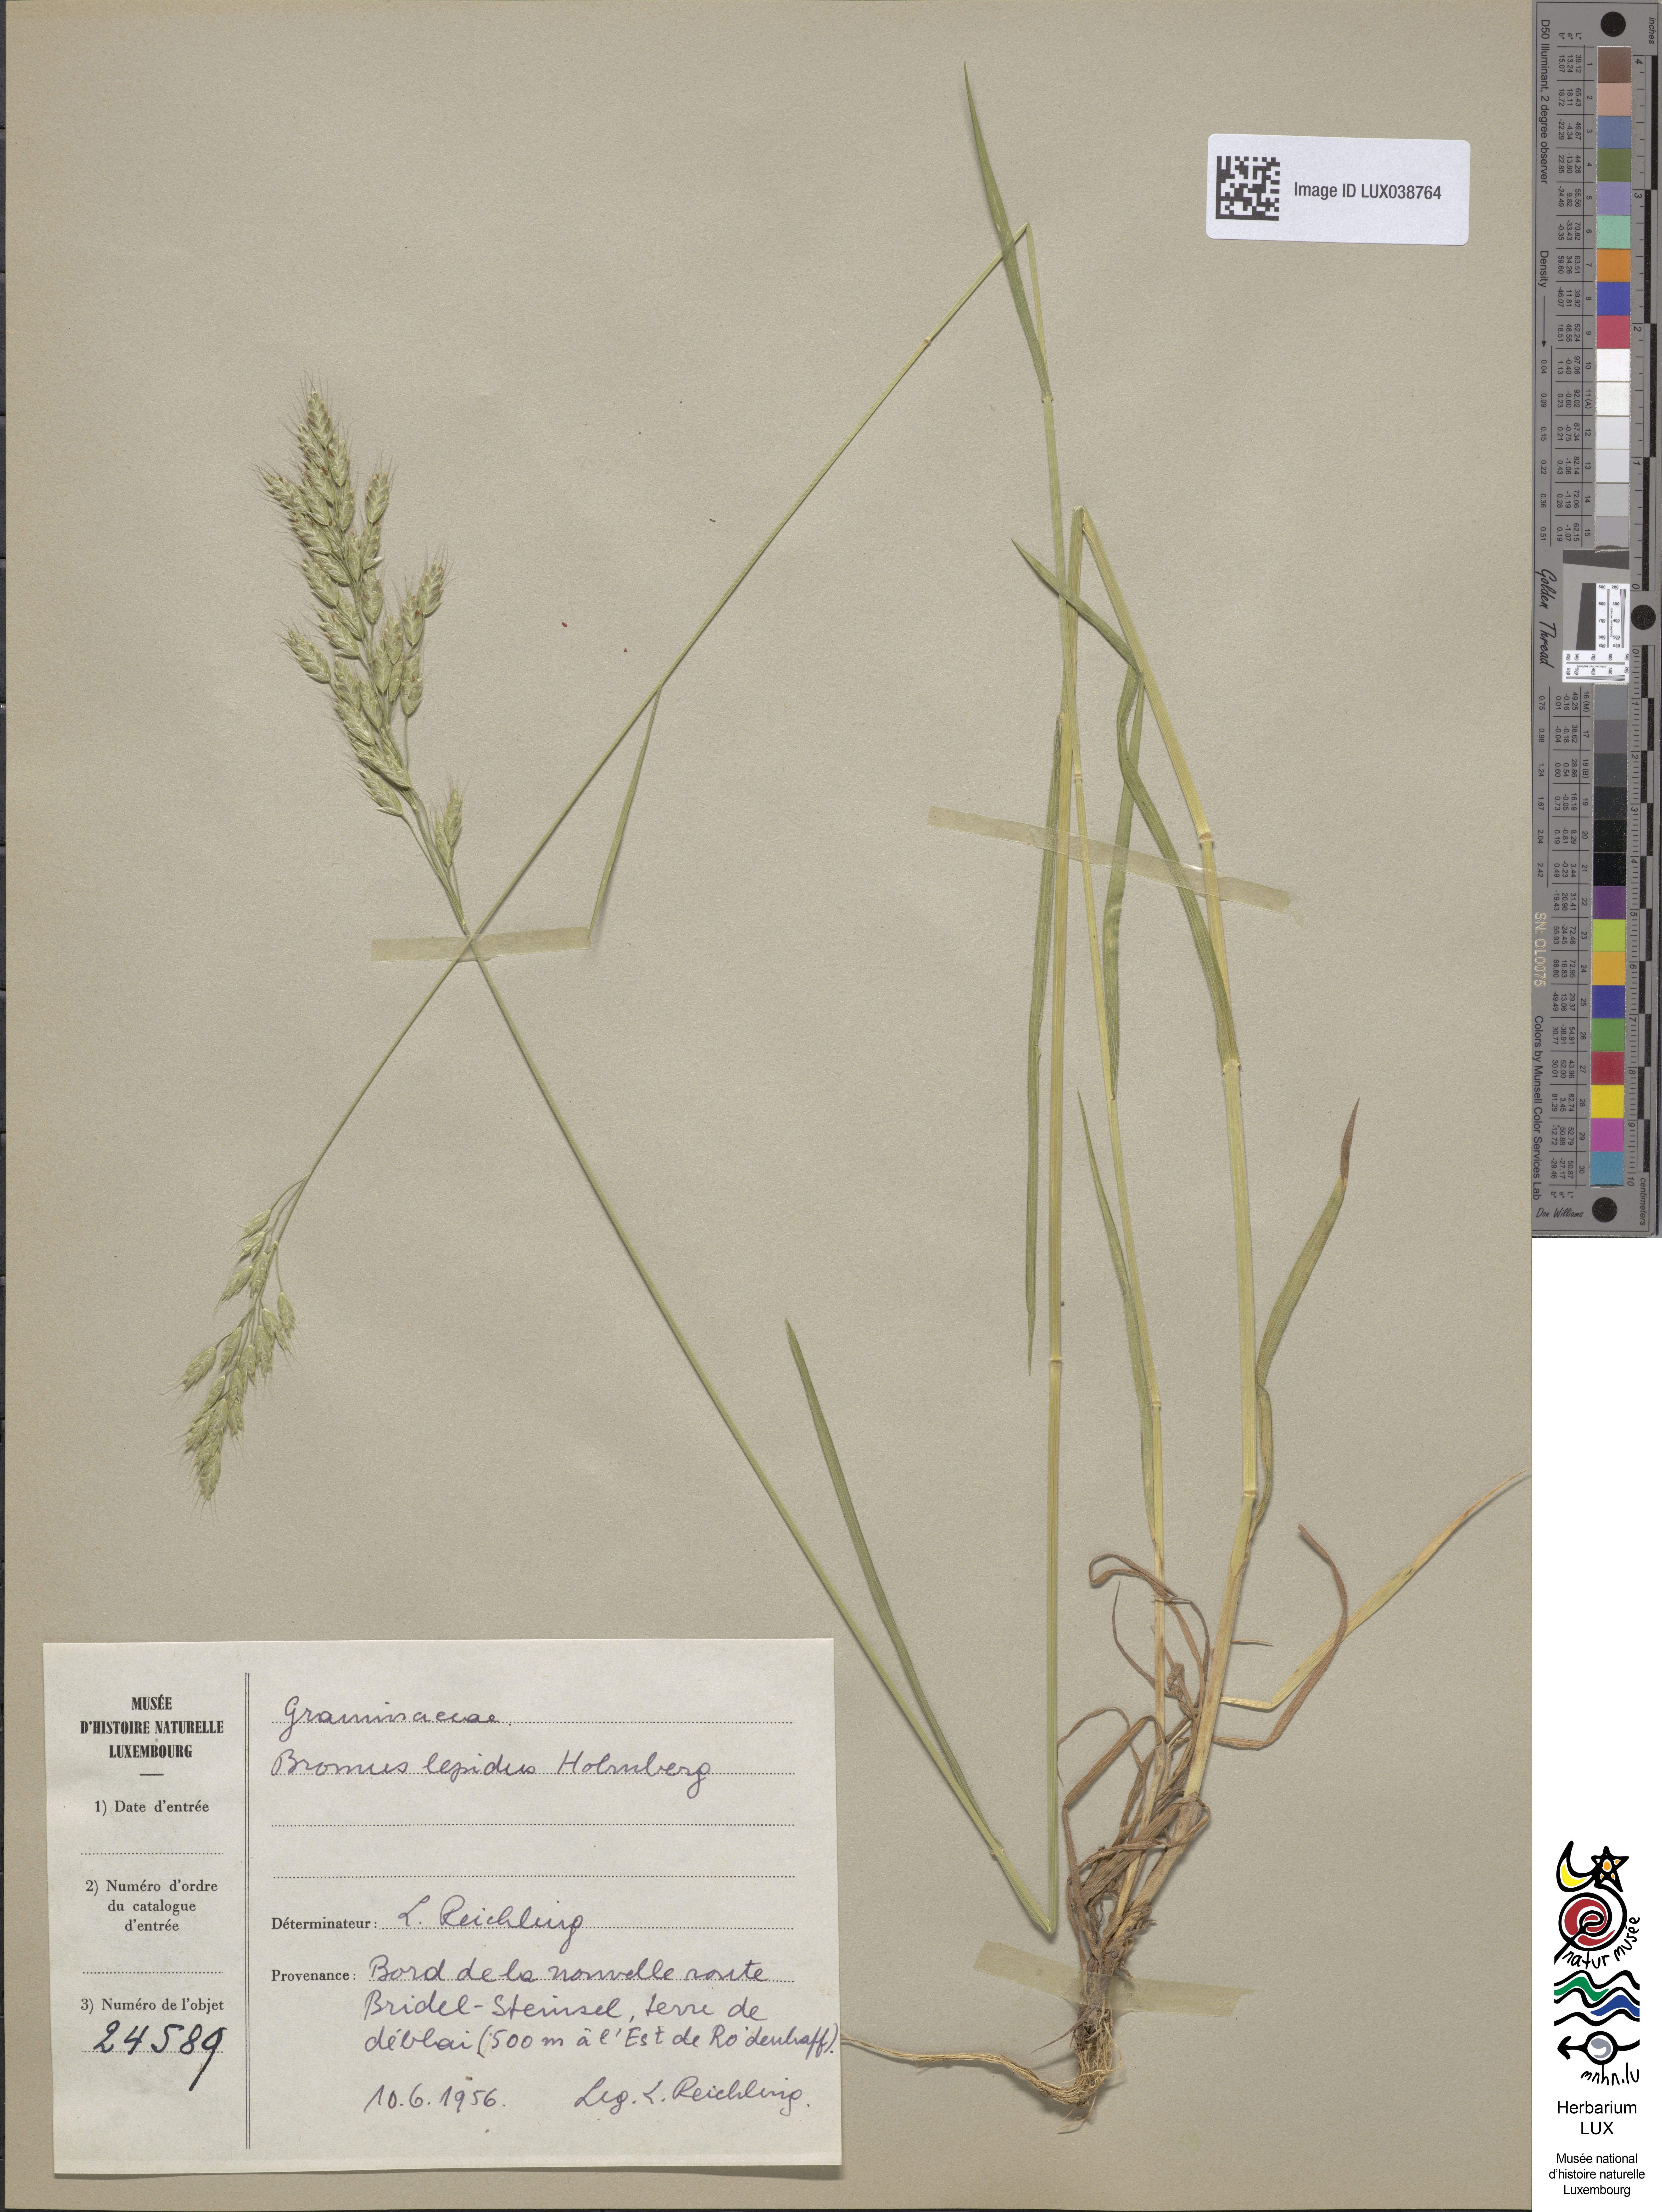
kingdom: Plantae
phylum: Tracheophyta
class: Liliopsida
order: Poales
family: Poaceae
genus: Bromus
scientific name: Bromus lepidus
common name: Slender soft-brome
